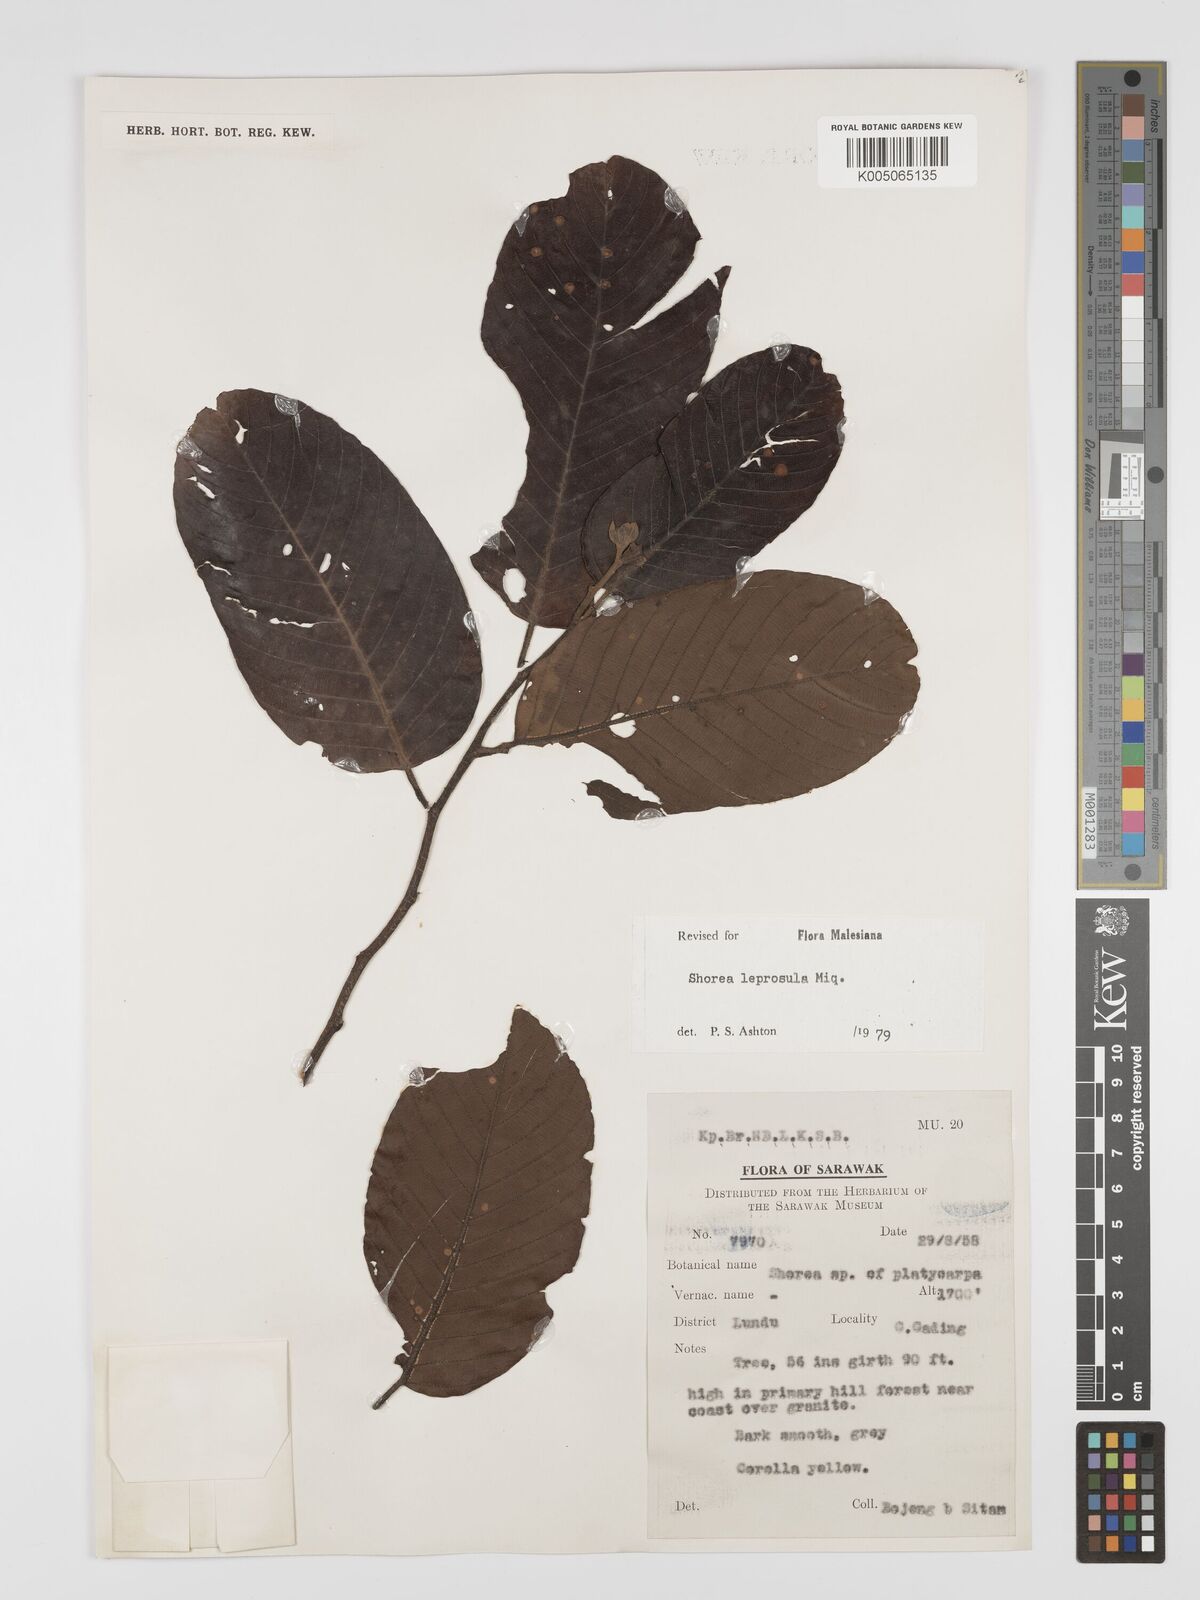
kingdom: Plantae
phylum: Tracheophyta
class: Magnoliopsida
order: Malvales
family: Dipterocarpaceae
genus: Shorea
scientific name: Shorea leprosula
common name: Light red meranti
